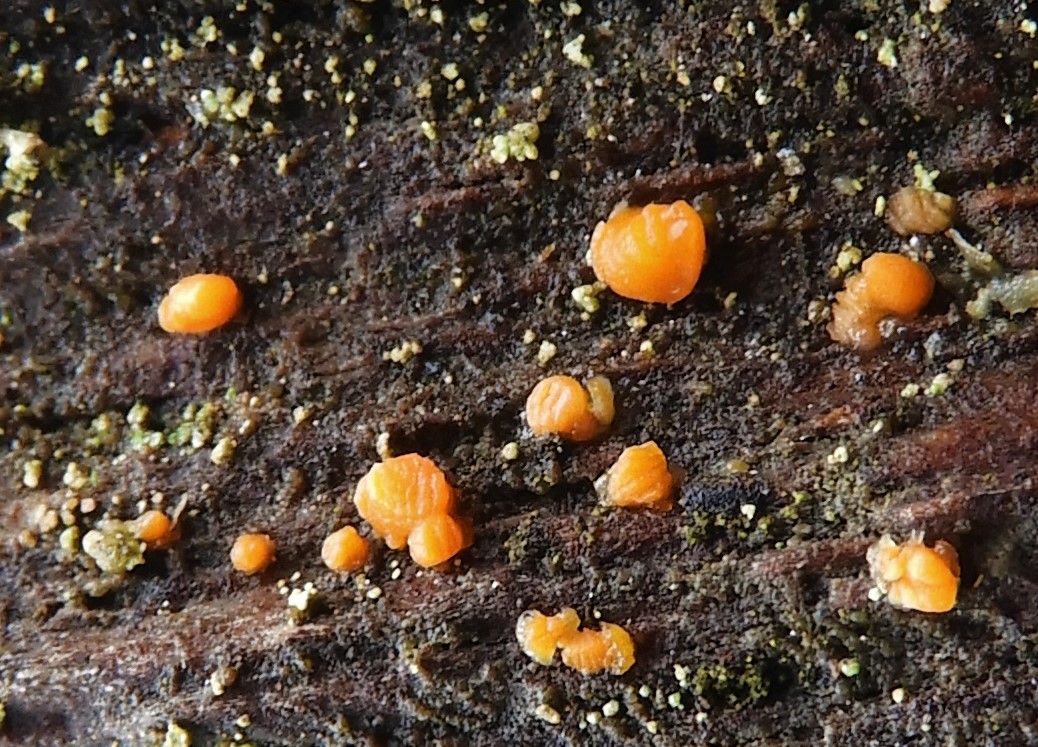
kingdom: Fungi
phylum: Basidiomycota
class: Dacrymycetes
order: Dacrymycetales
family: Dacrymycetaceae
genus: Dacrymyces
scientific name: Dacrymyces stillatus
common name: almindelig tåresvamp
